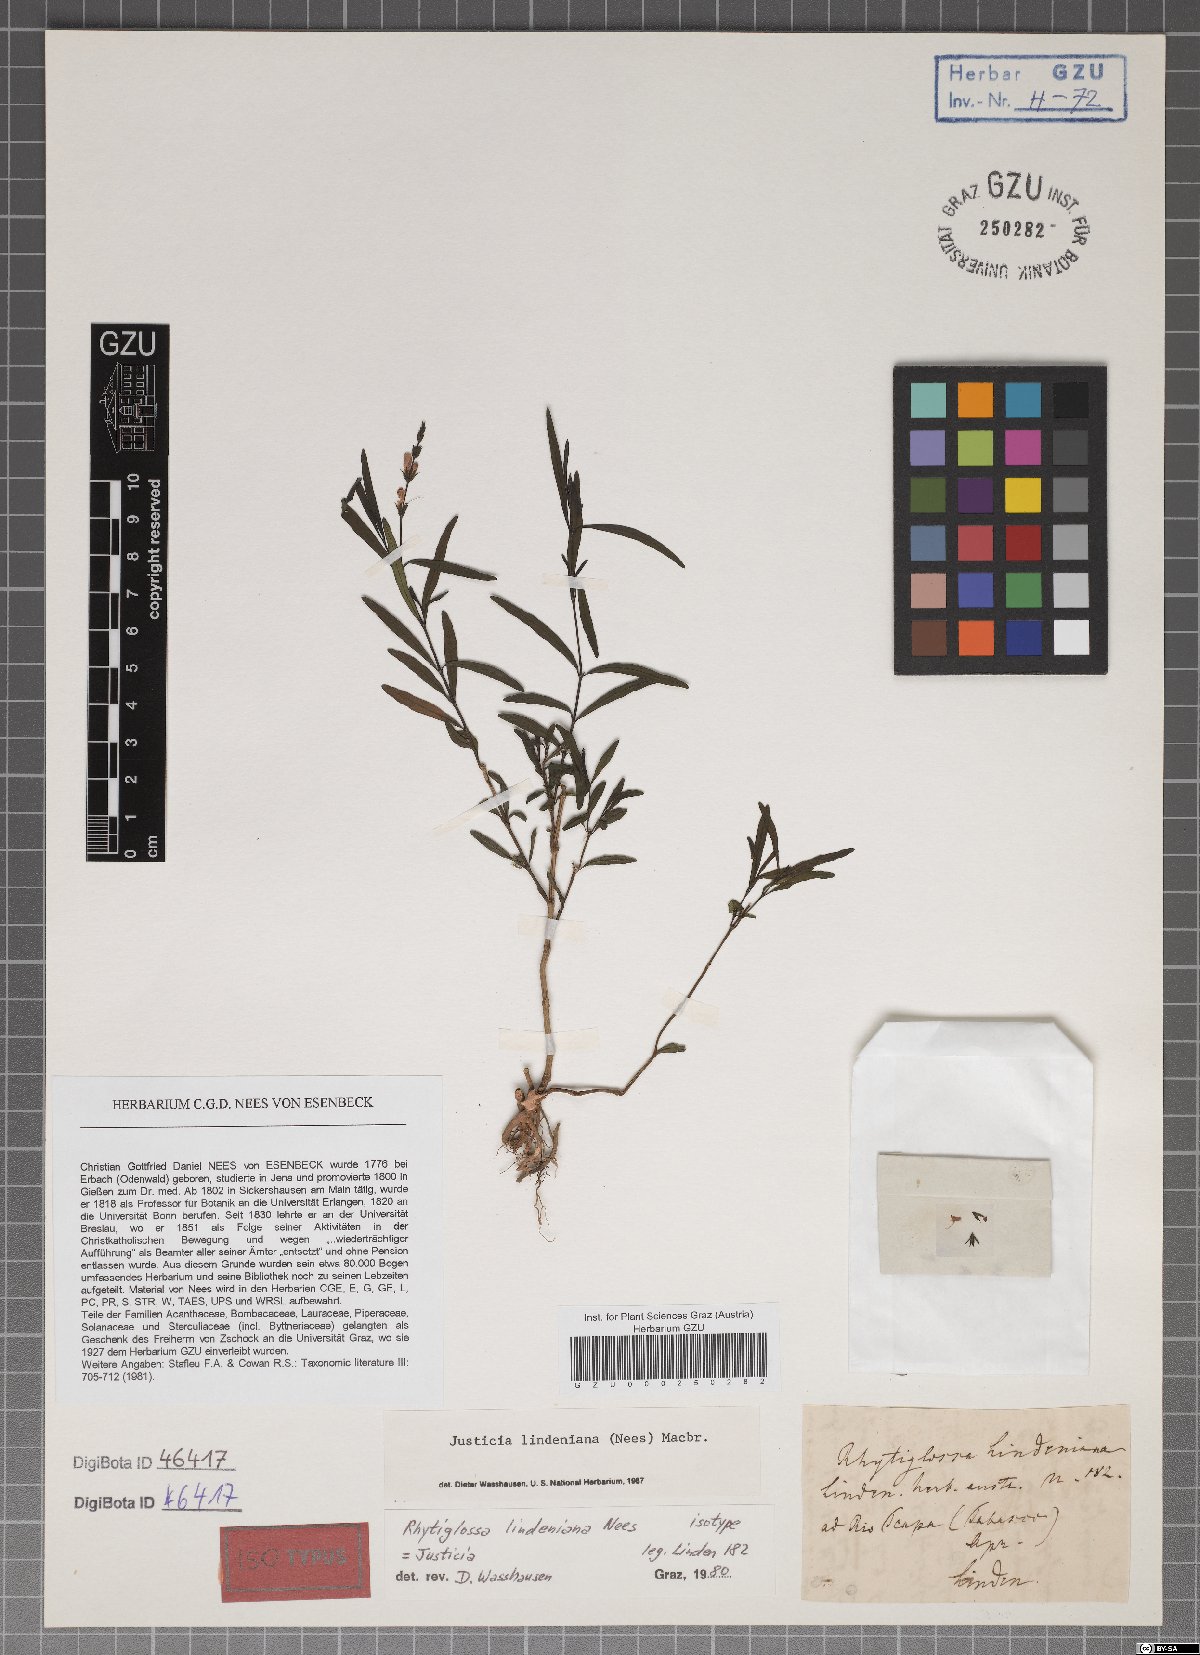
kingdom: Plantae
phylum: Tracheophyta
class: Magnoliopsida
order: Lamiales
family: Acanthaceae
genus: Dianthera
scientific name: Dianthera lindeniana
